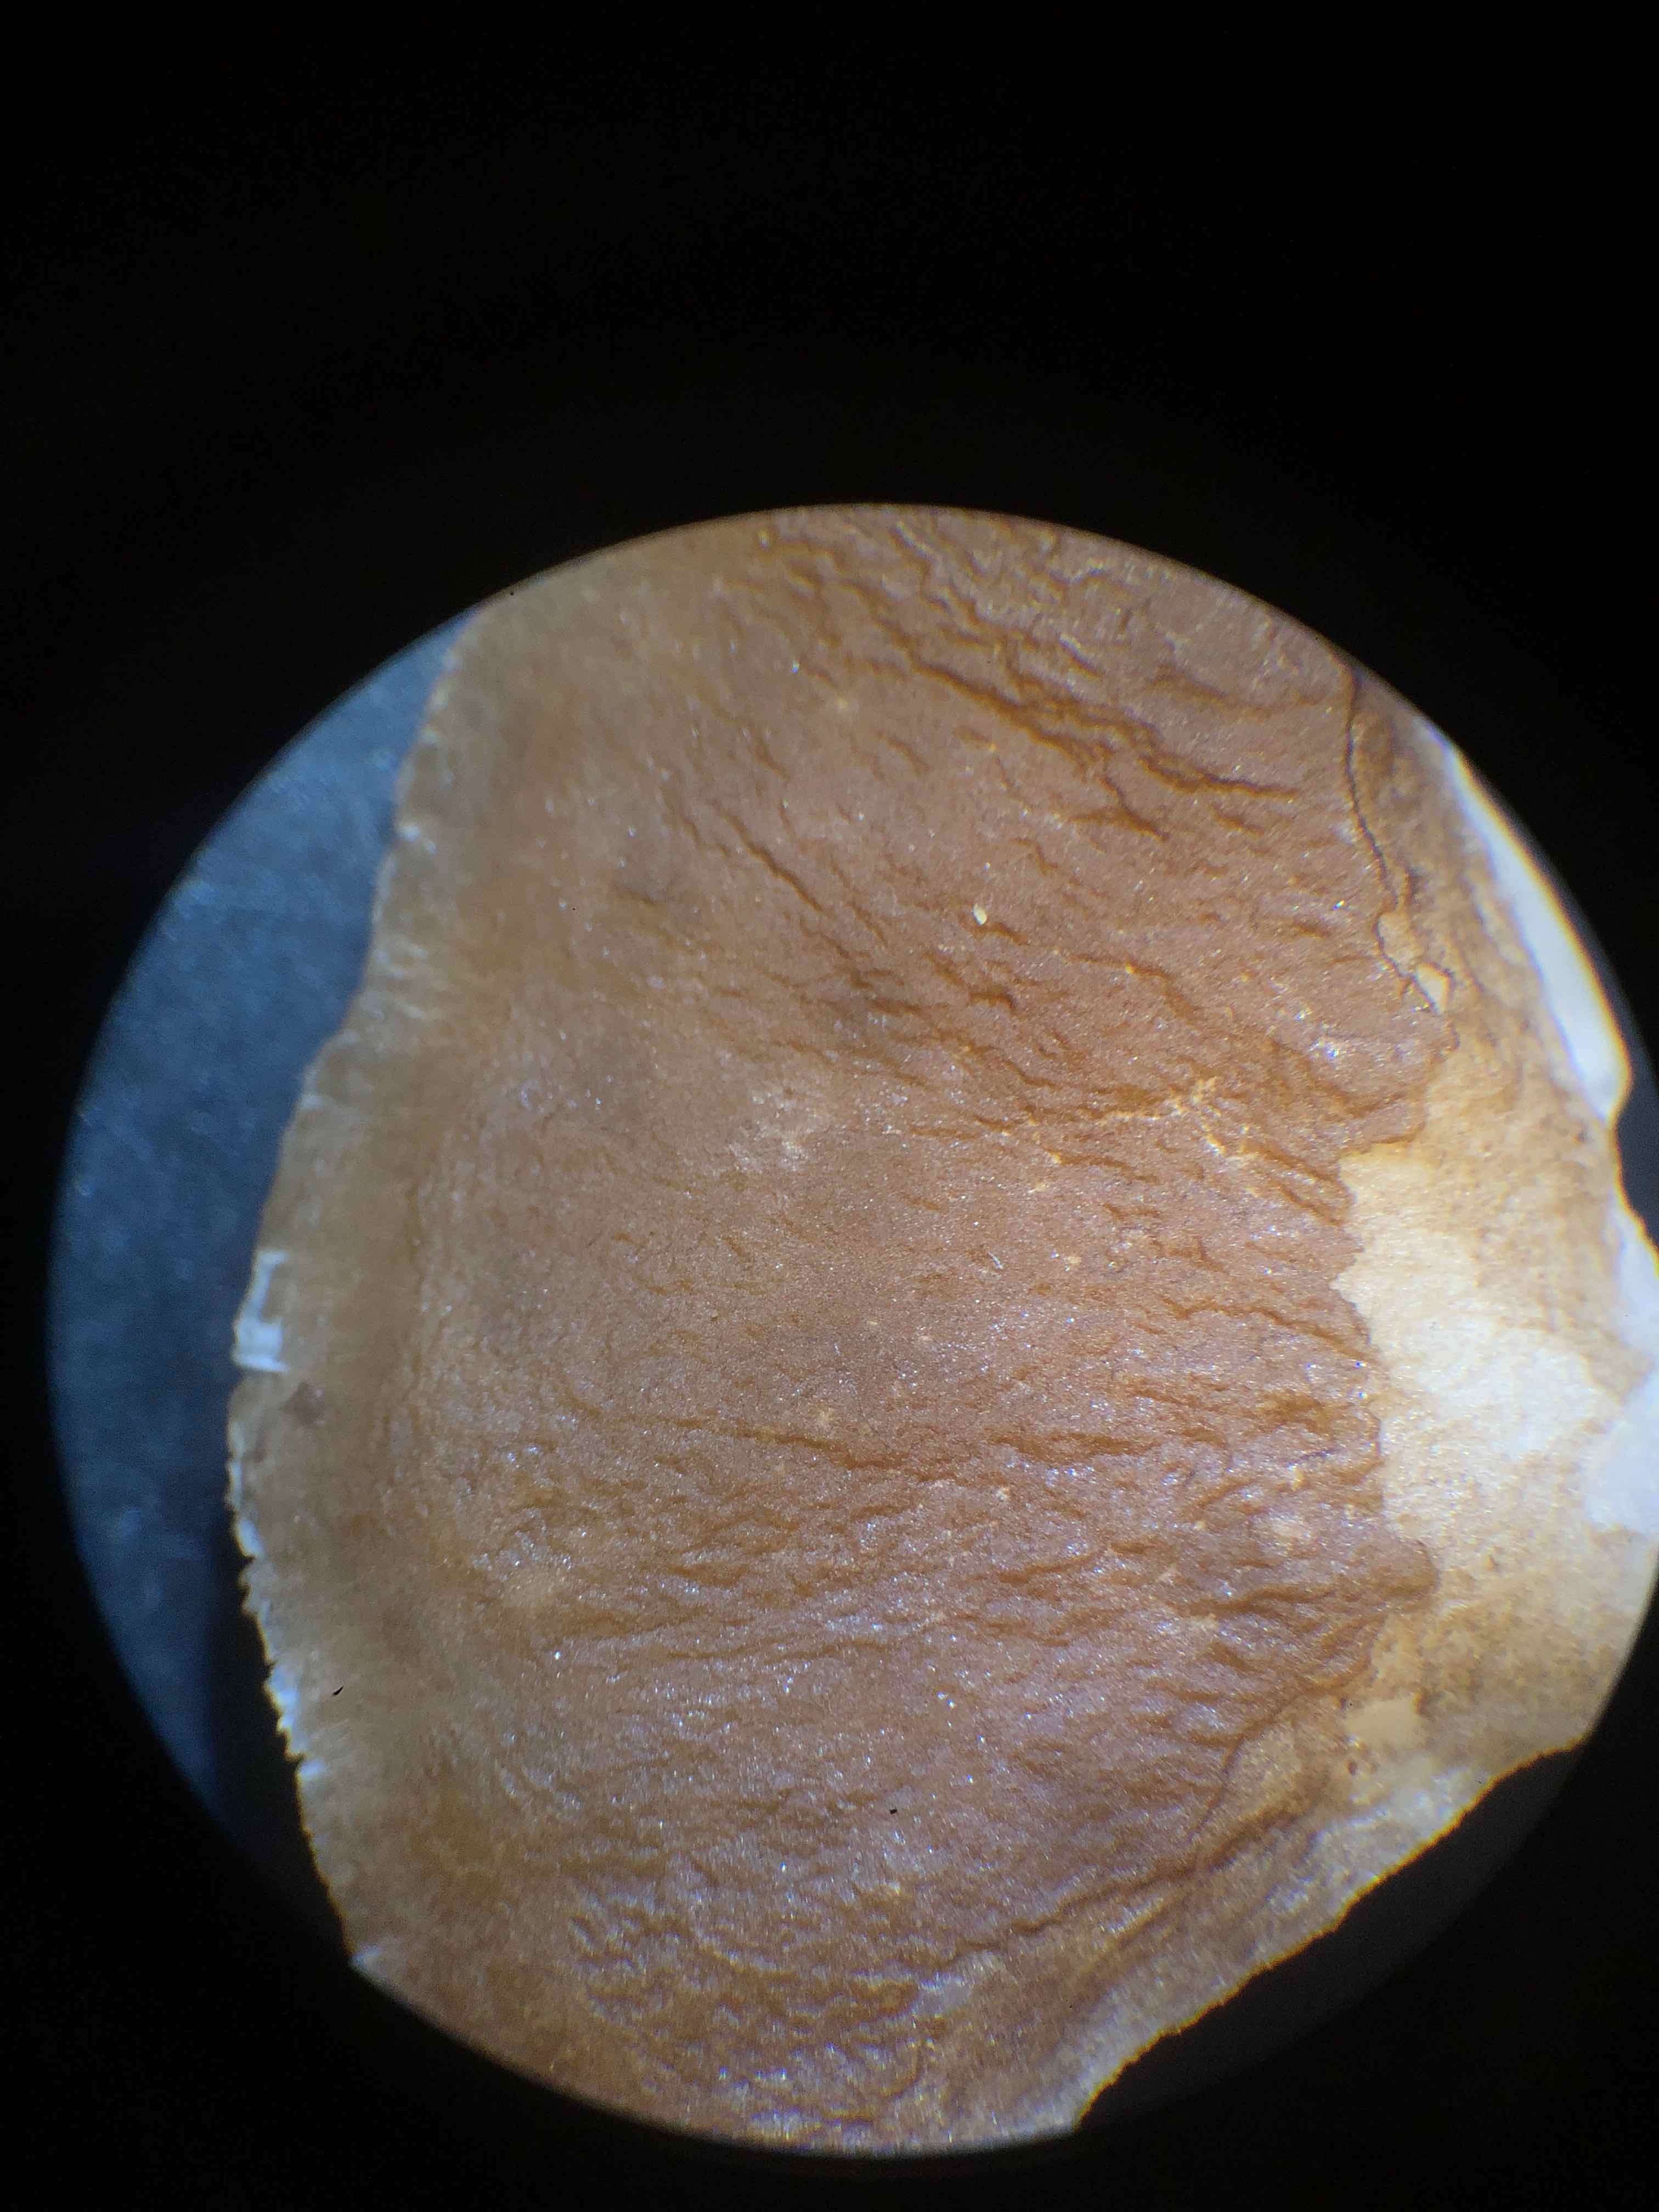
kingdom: Fungi
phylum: Basidiomycota
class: Agaricomycetes
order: Agaricales
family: Pluteaceae
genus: Pluteus
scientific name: Pluteus phlebophorus
